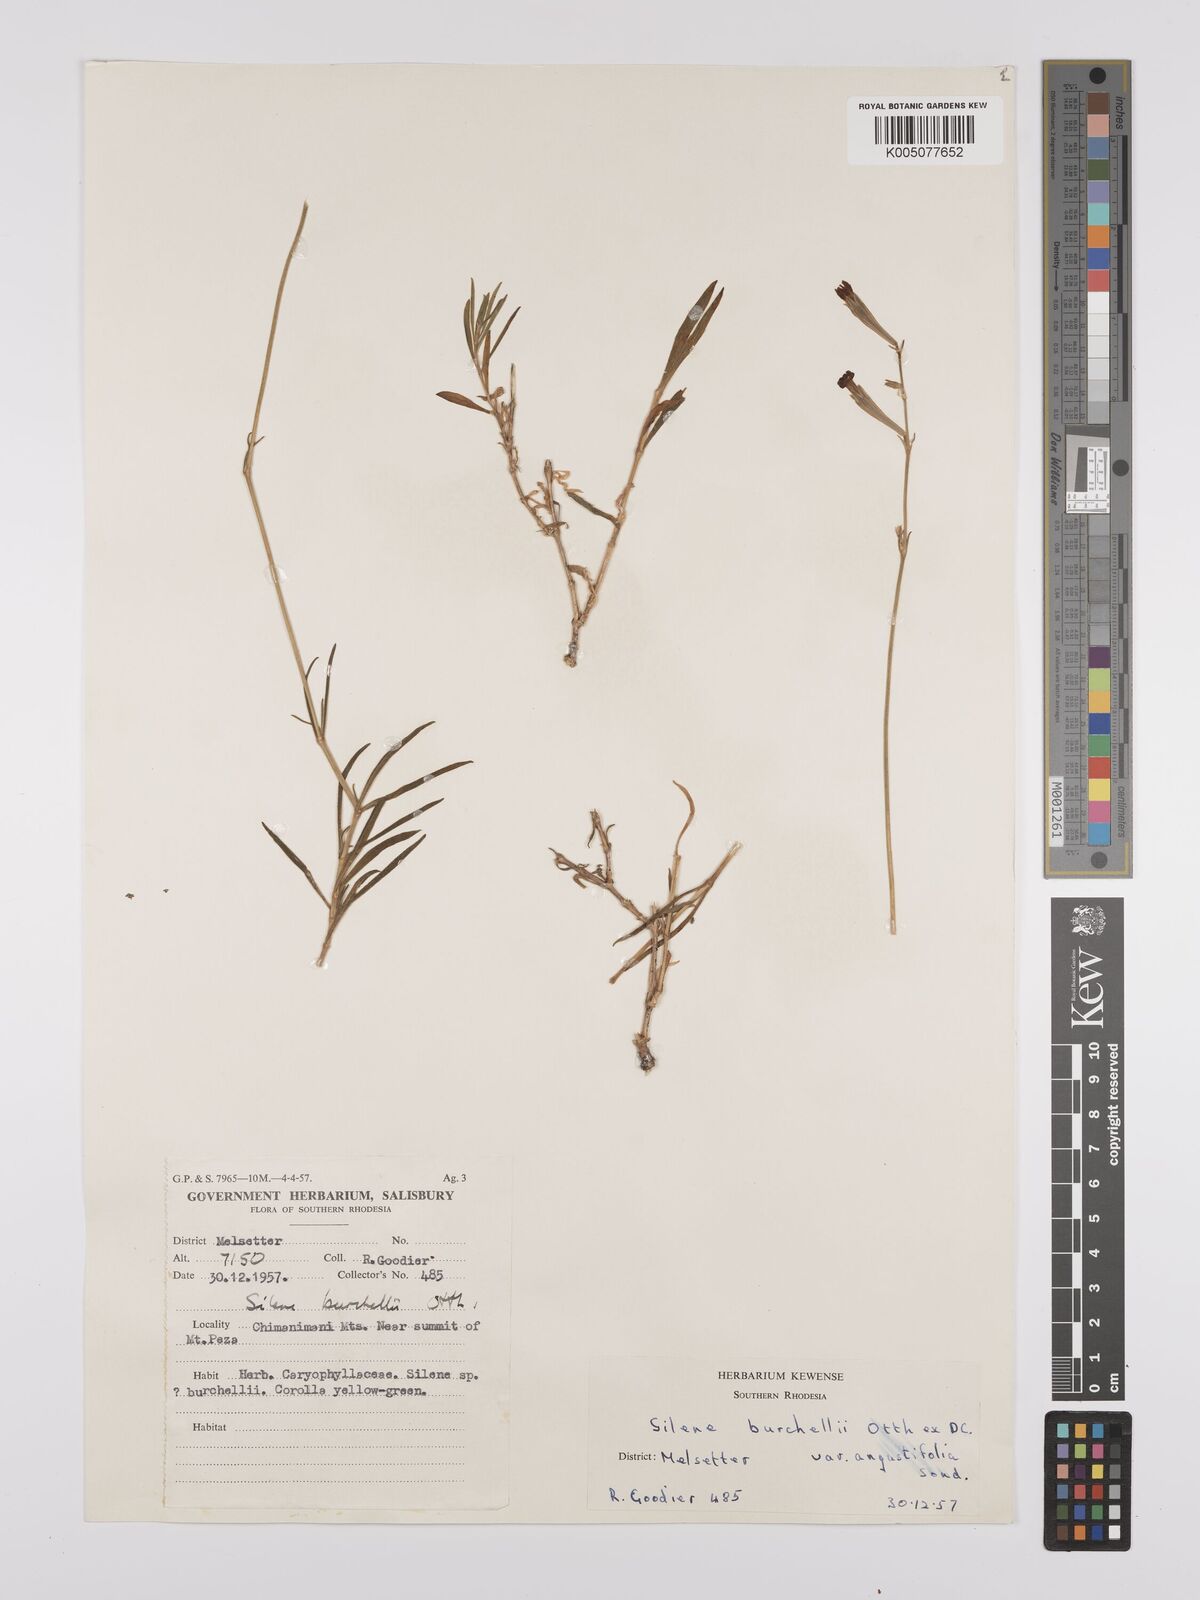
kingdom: Plantae
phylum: Tracheophyta
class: Magnoliopsida
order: Caryophyllales
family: Caryophyllaceae
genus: Silene
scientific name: Silene burchellii
